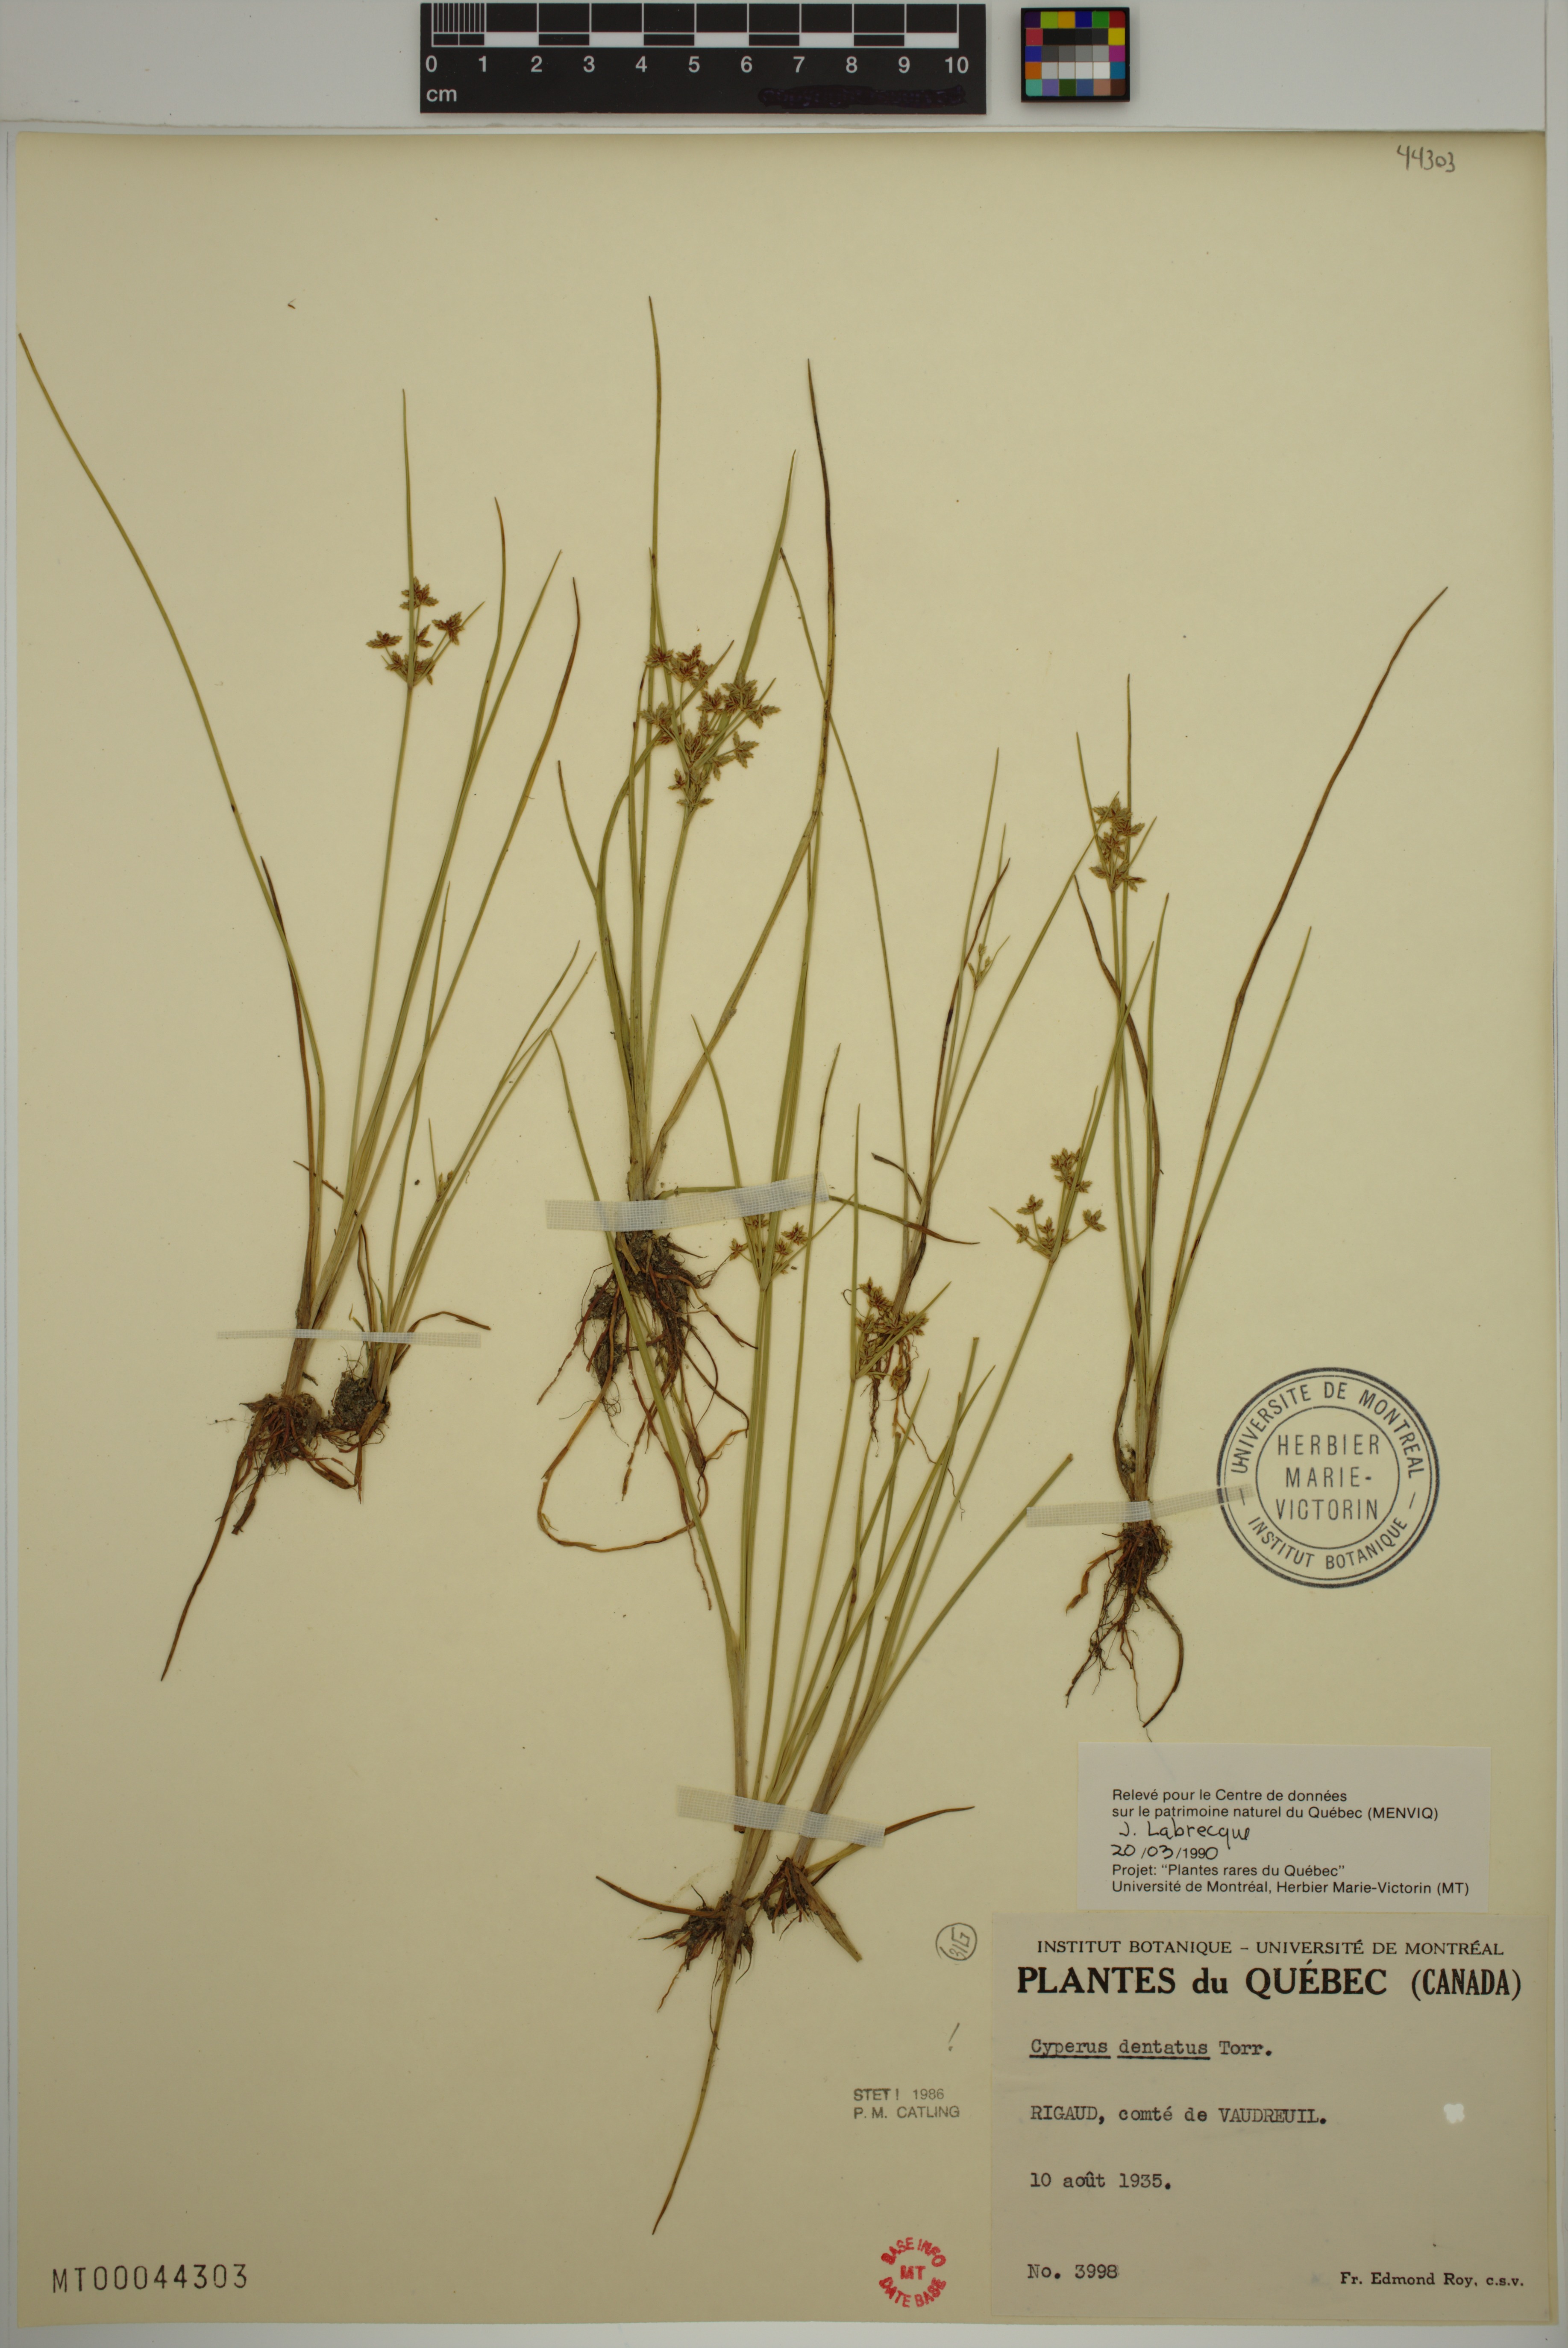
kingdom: Plantae
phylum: Tracheophyta
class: Liliopsida
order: Poales
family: Cyperaceae
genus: Cyperus
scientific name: Cyperus dentatus
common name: Dentate umbrella sedge
